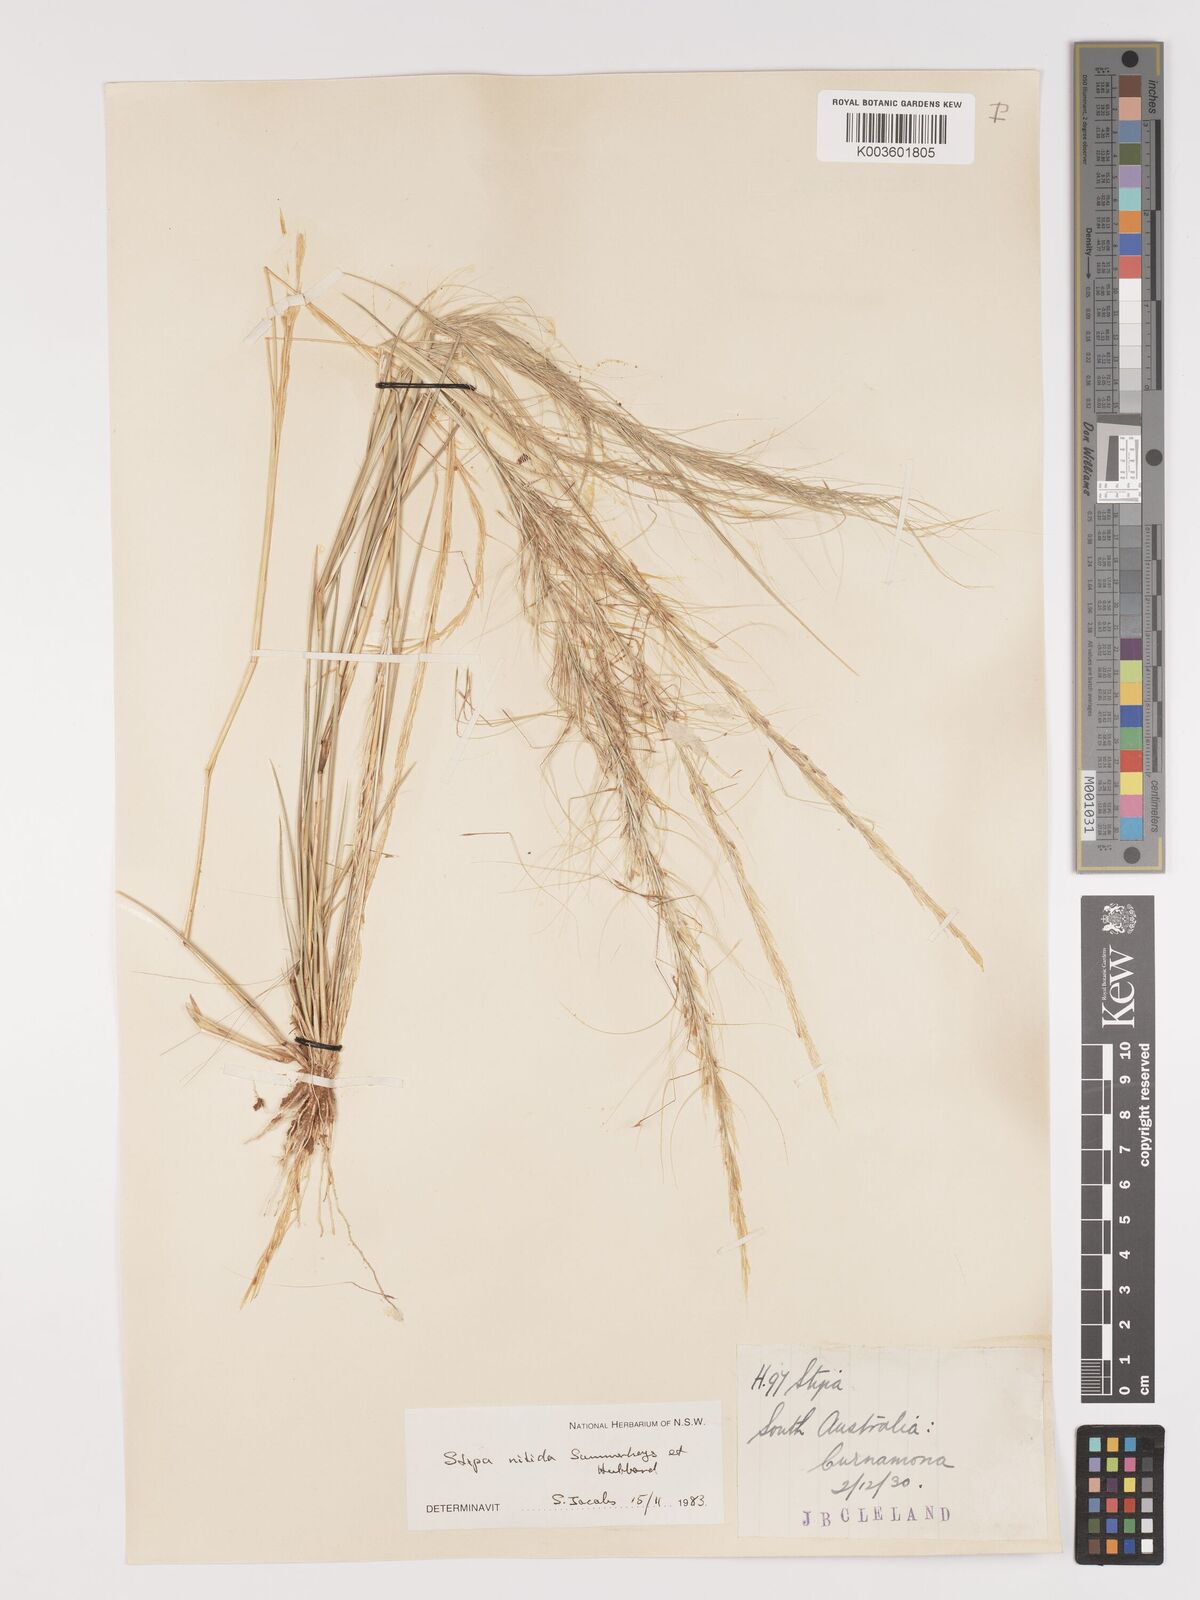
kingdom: Plantae
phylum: Tracheophyta
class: Liliopsida
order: Poales
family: Poaceae
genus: Austrostipa
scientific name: Austrostipa nitida
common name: Balcarra grass
